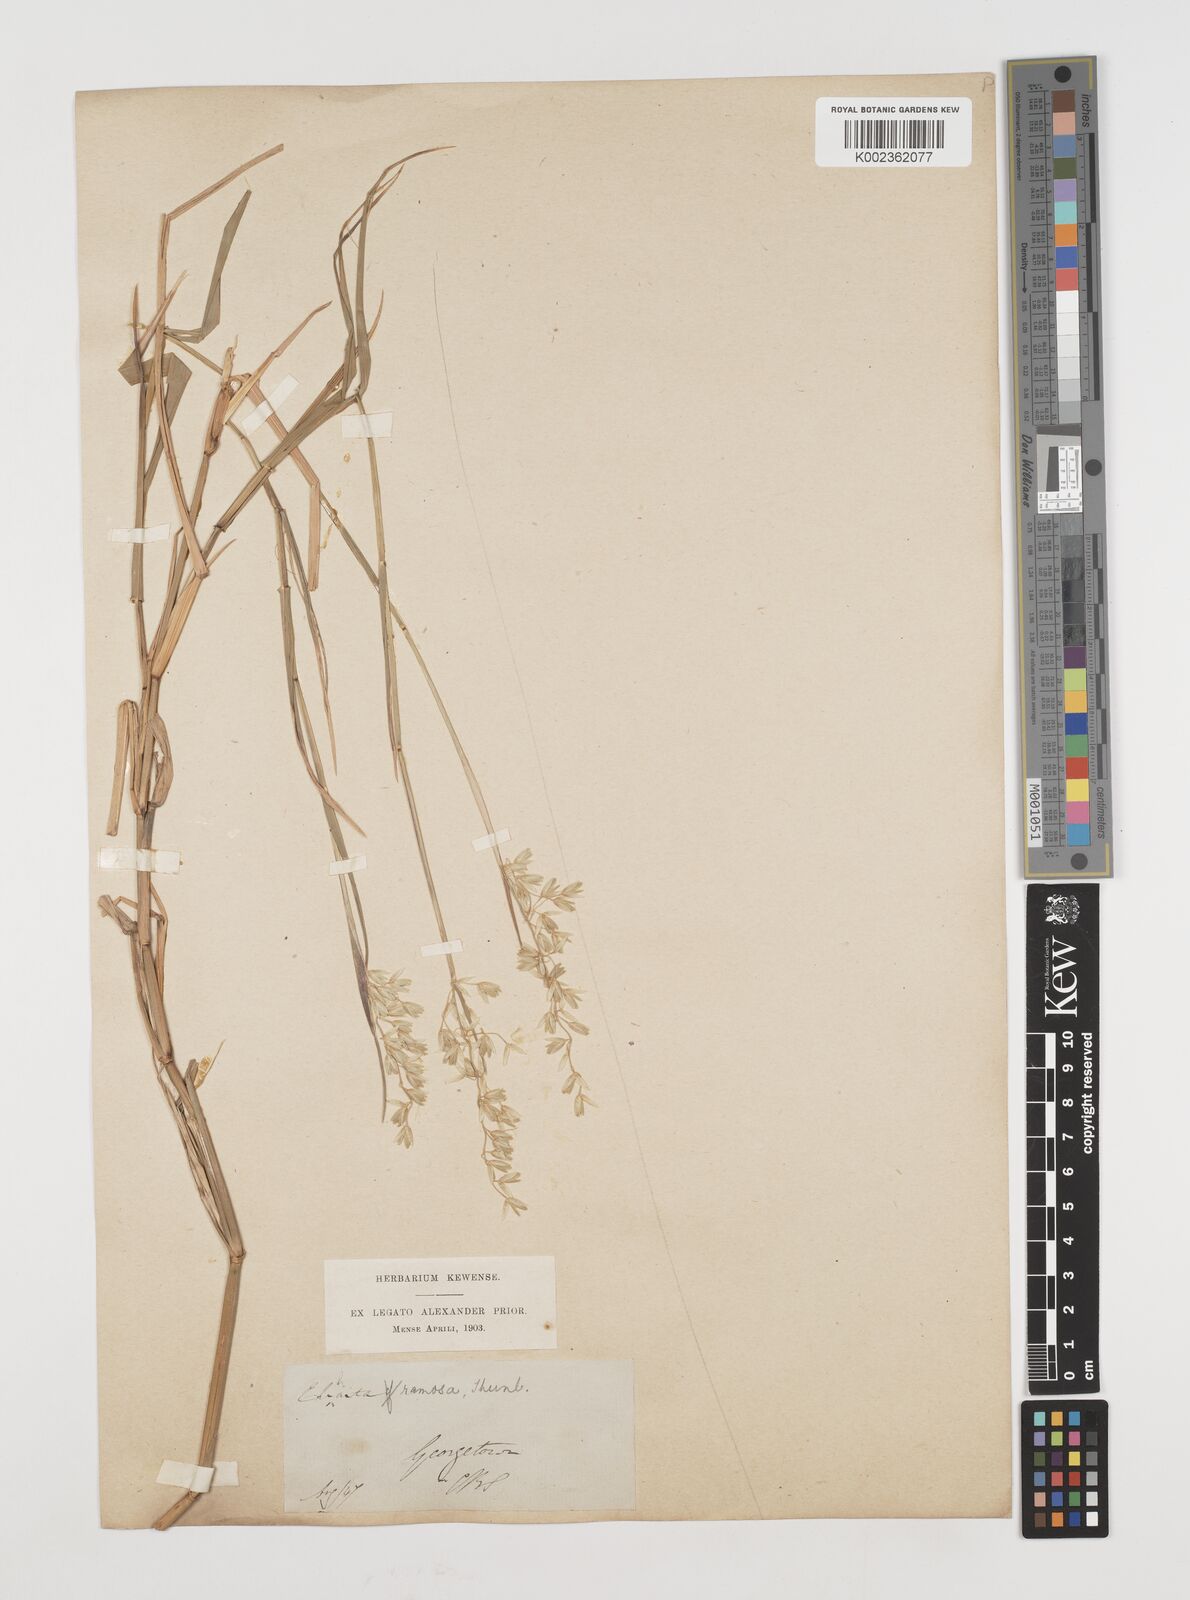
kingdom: Plantae
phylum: Tracheophyta
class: Liliopsida
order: Poales
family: Poaceae
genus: Ehrharta
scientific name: Ehrharta rehmannii
